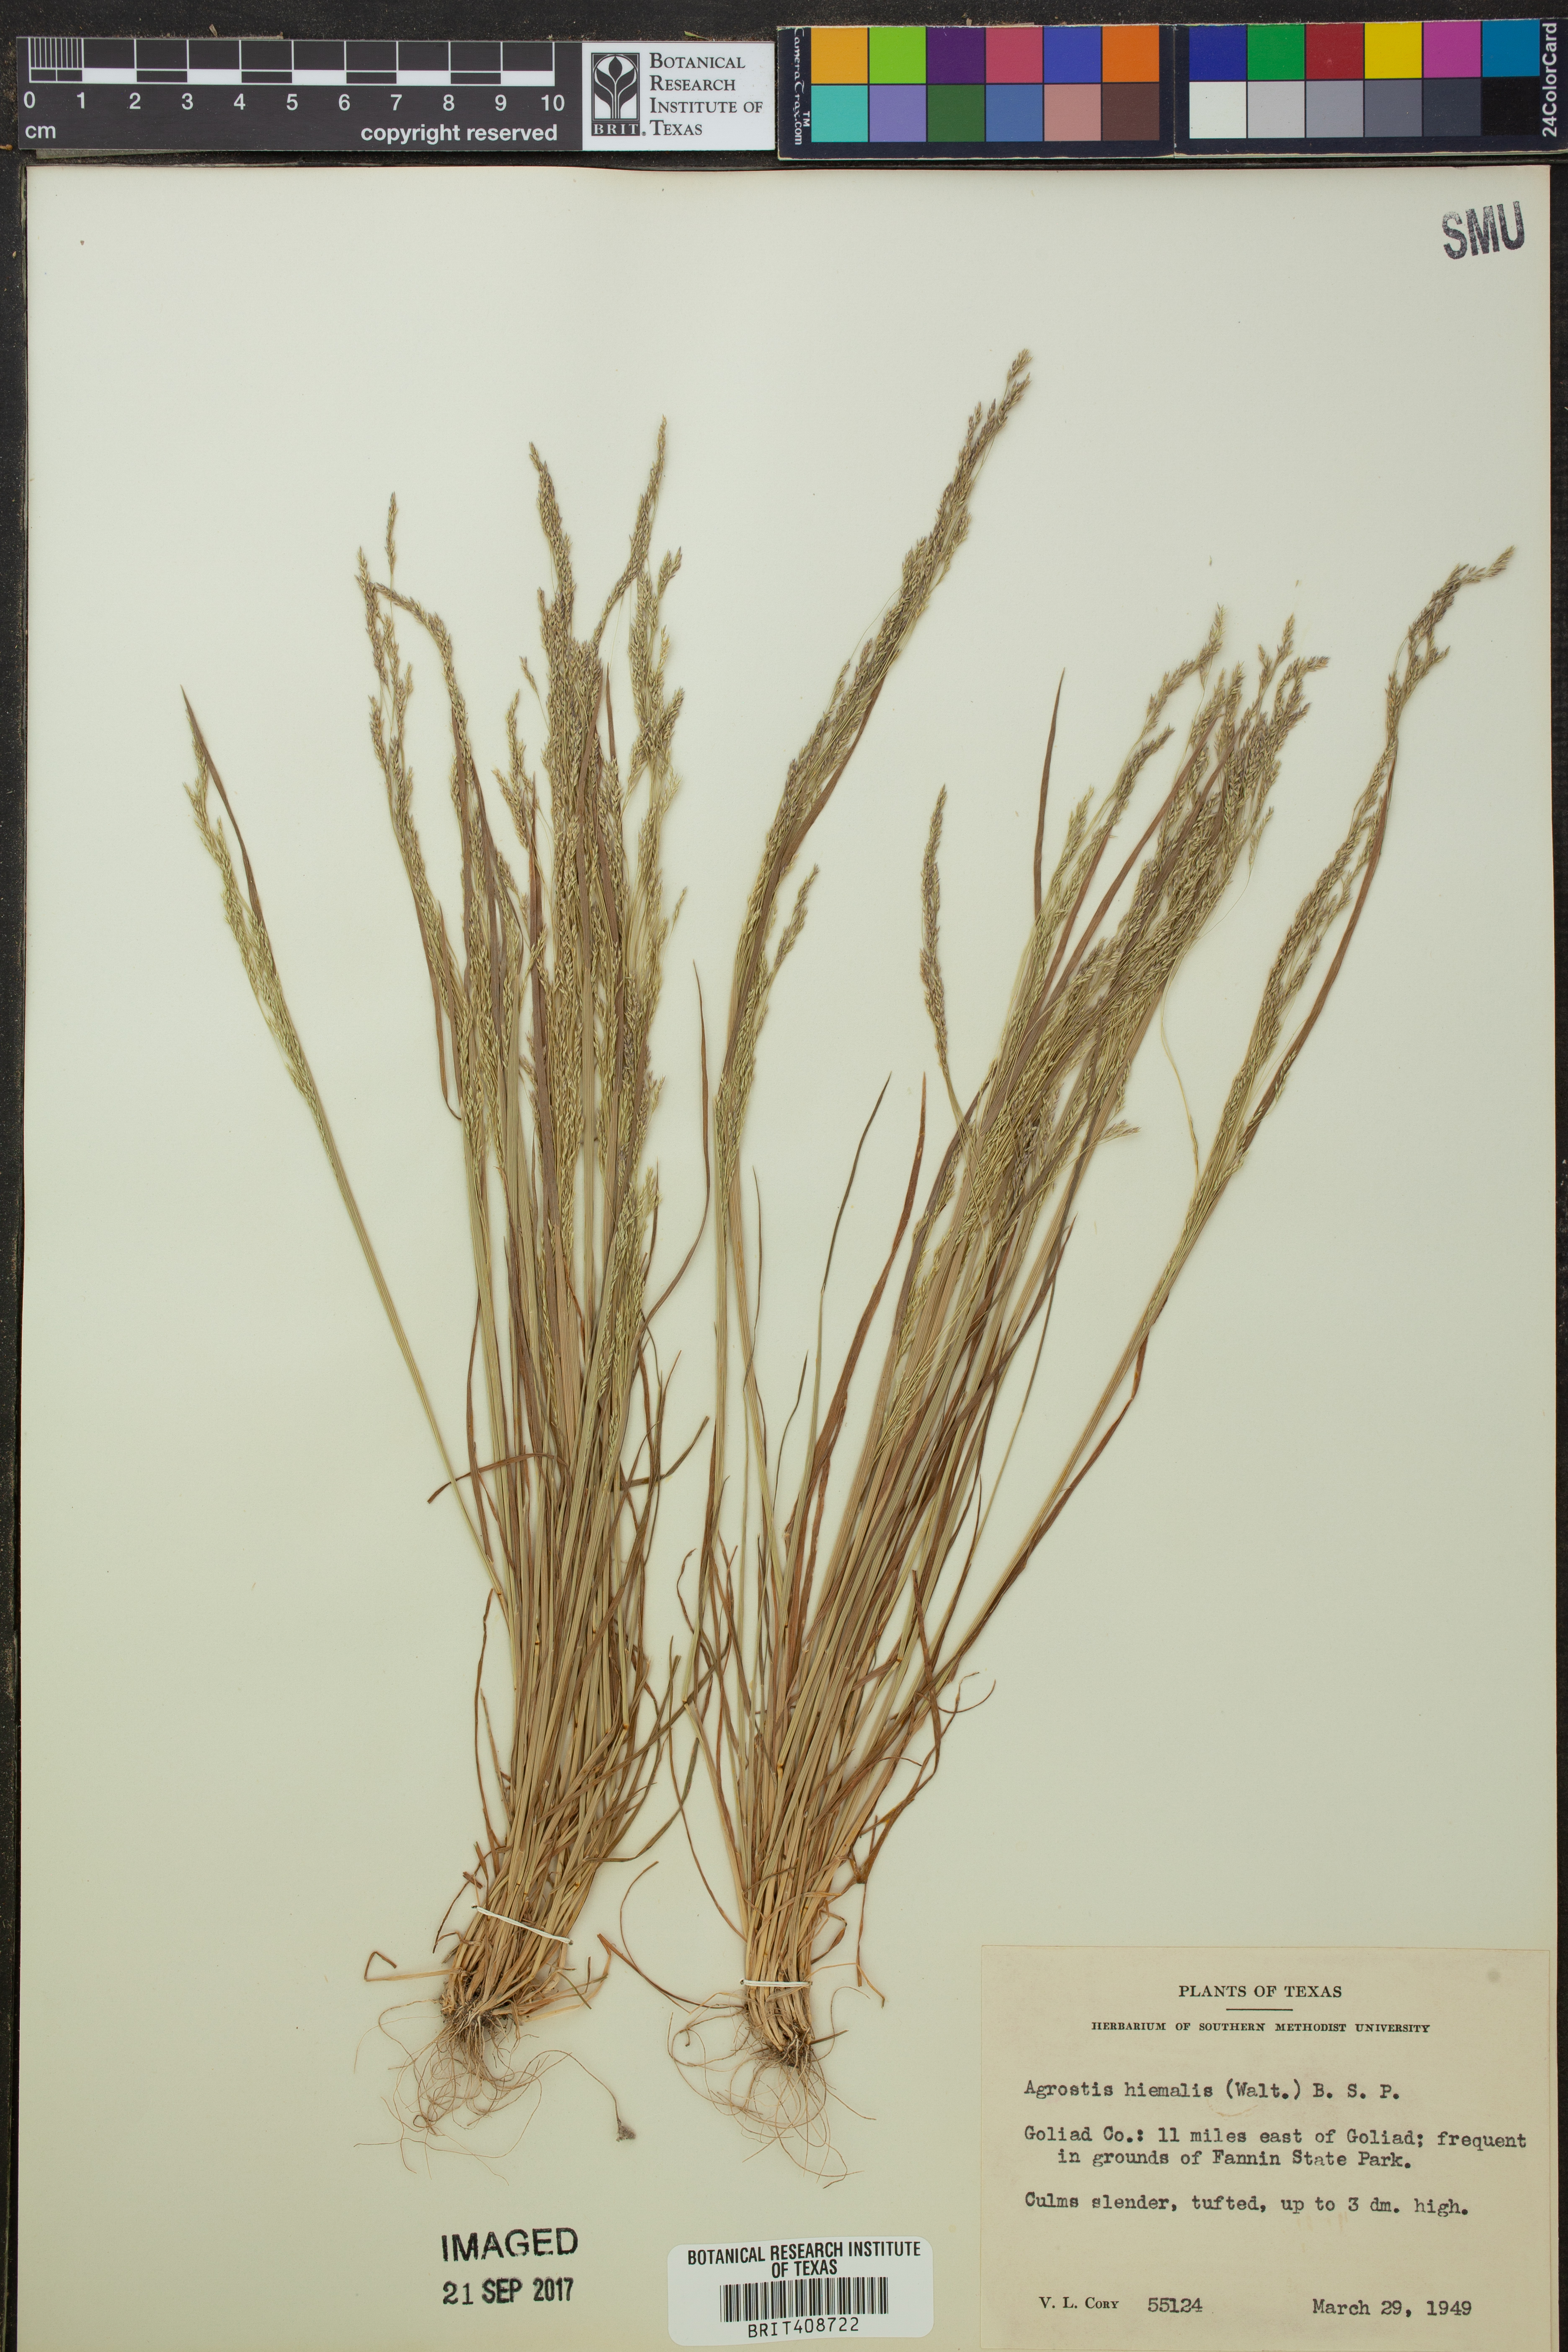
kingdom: Plantae
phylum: Tracheophyta
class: Liliopsida
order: Poales
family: Poaceae
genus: Agrostis
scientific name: Agrostis hyemalis
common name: Small bent
